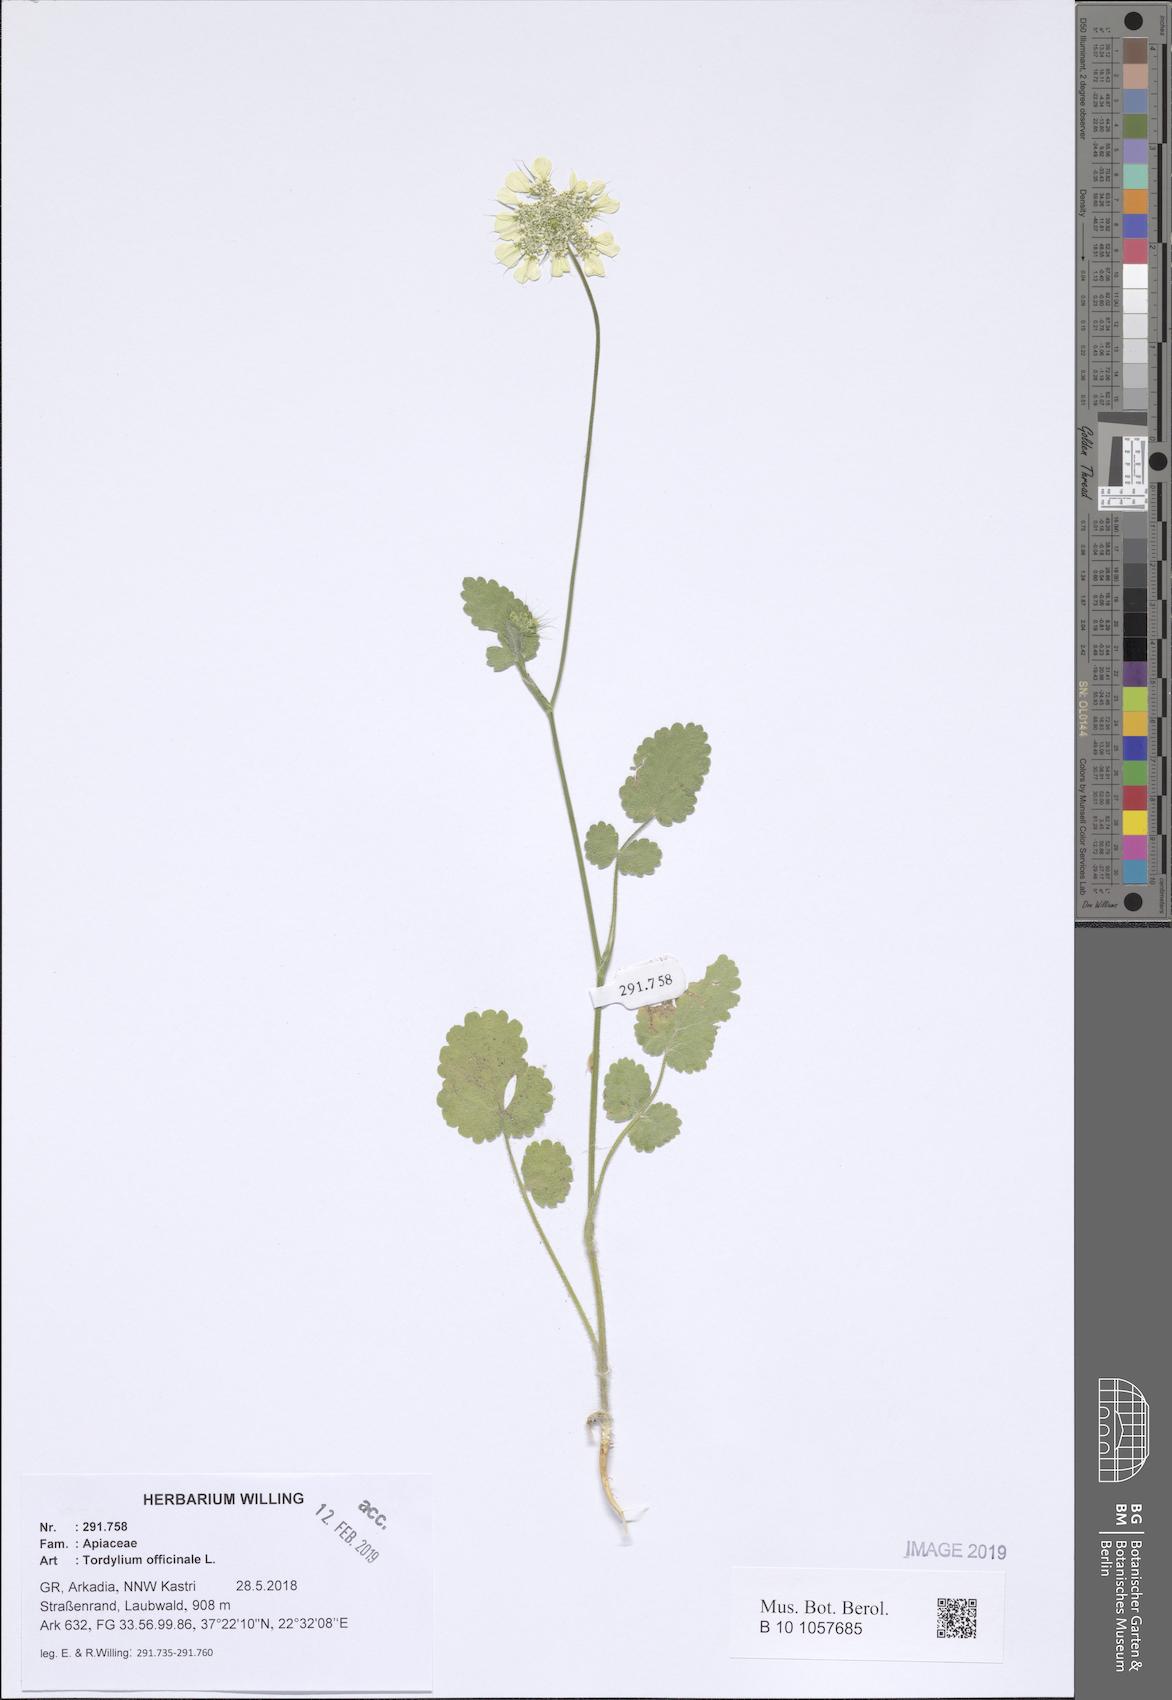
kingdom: Plantae
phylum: Tracheophyta
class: Magnoliopsida
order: Apiales
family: Apiaceae
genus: Tordylium
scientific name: Tordylium officinale
